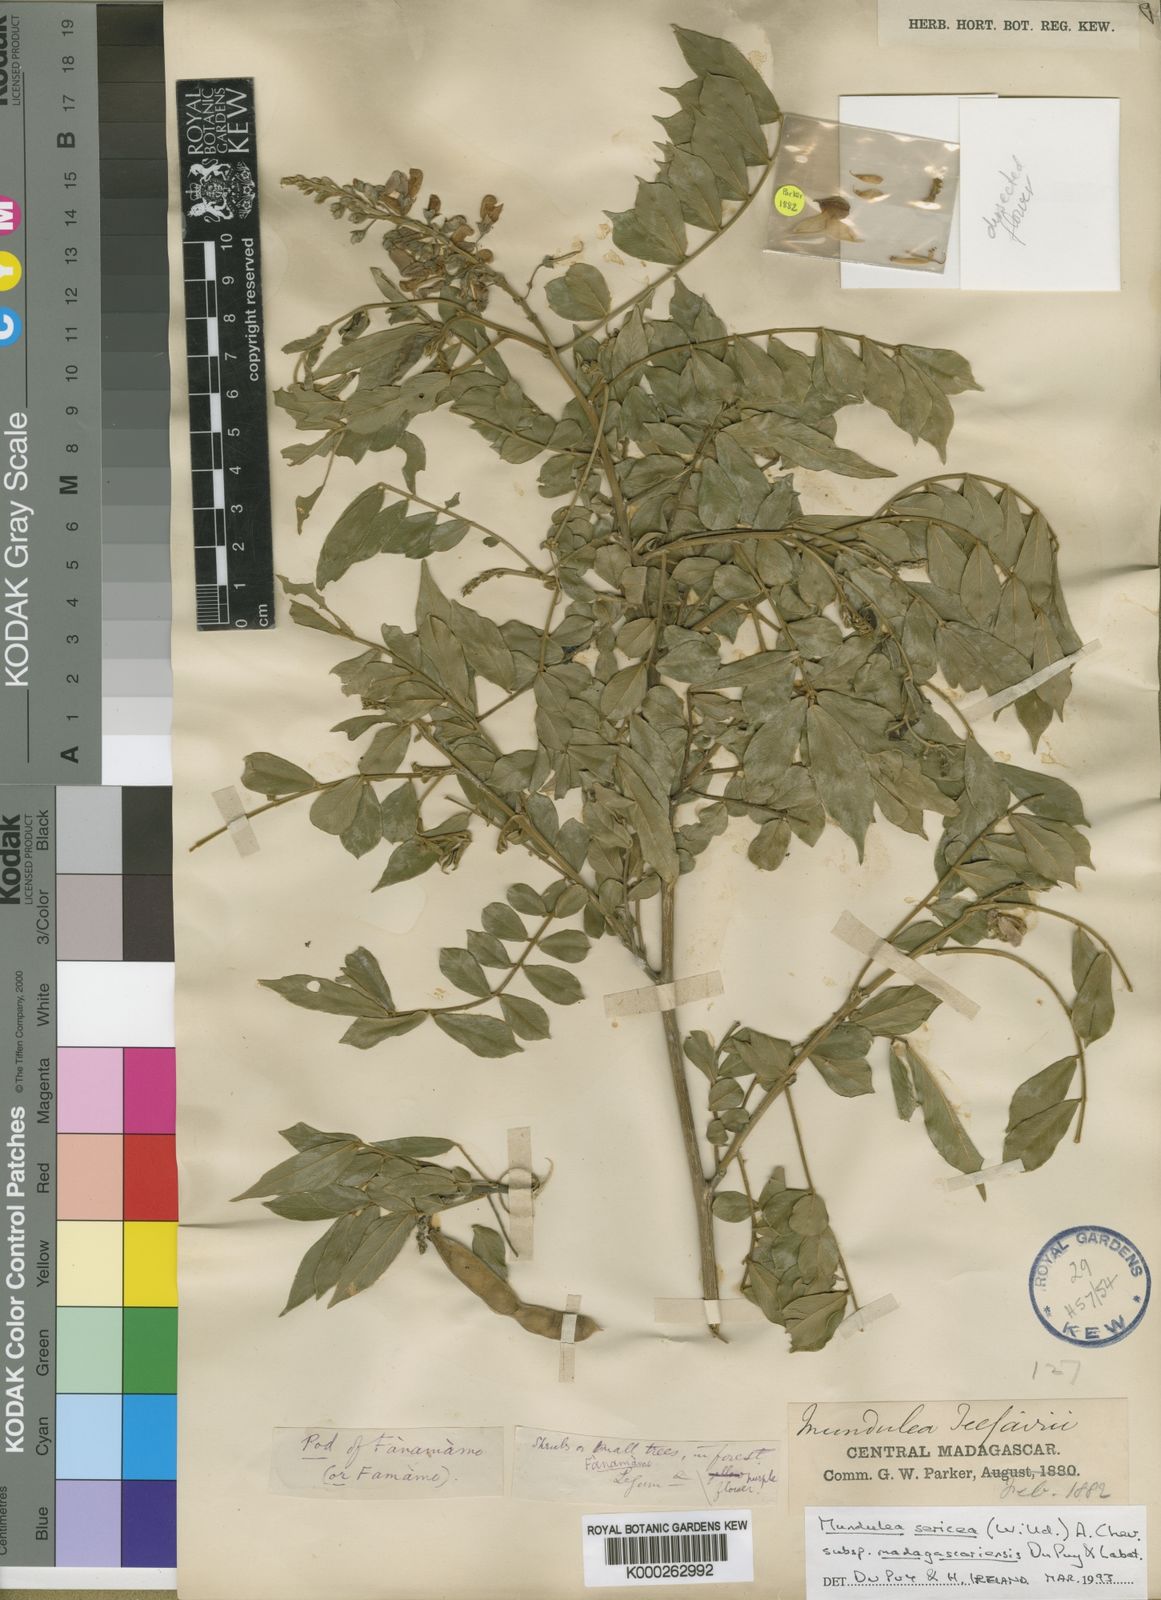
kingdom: Plantae
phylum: Tracheophyta
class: Magnoliopsida
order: Fabales
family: Fabaceae
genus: Mundulea
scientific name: Mundulea sericea
